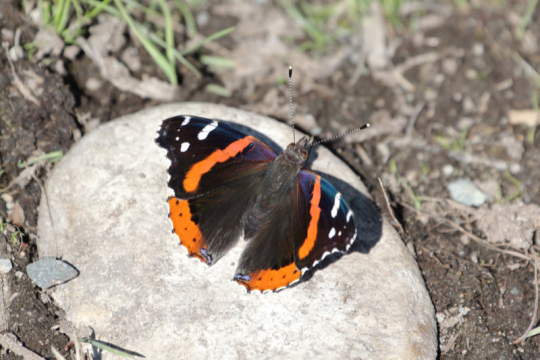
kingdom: Animalia
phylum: Arthropoda
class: Insecta
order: Lepidoptera
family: Nymphalidae
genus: Vanessa
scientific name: Vanessa atalanta
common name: Red Admiral
